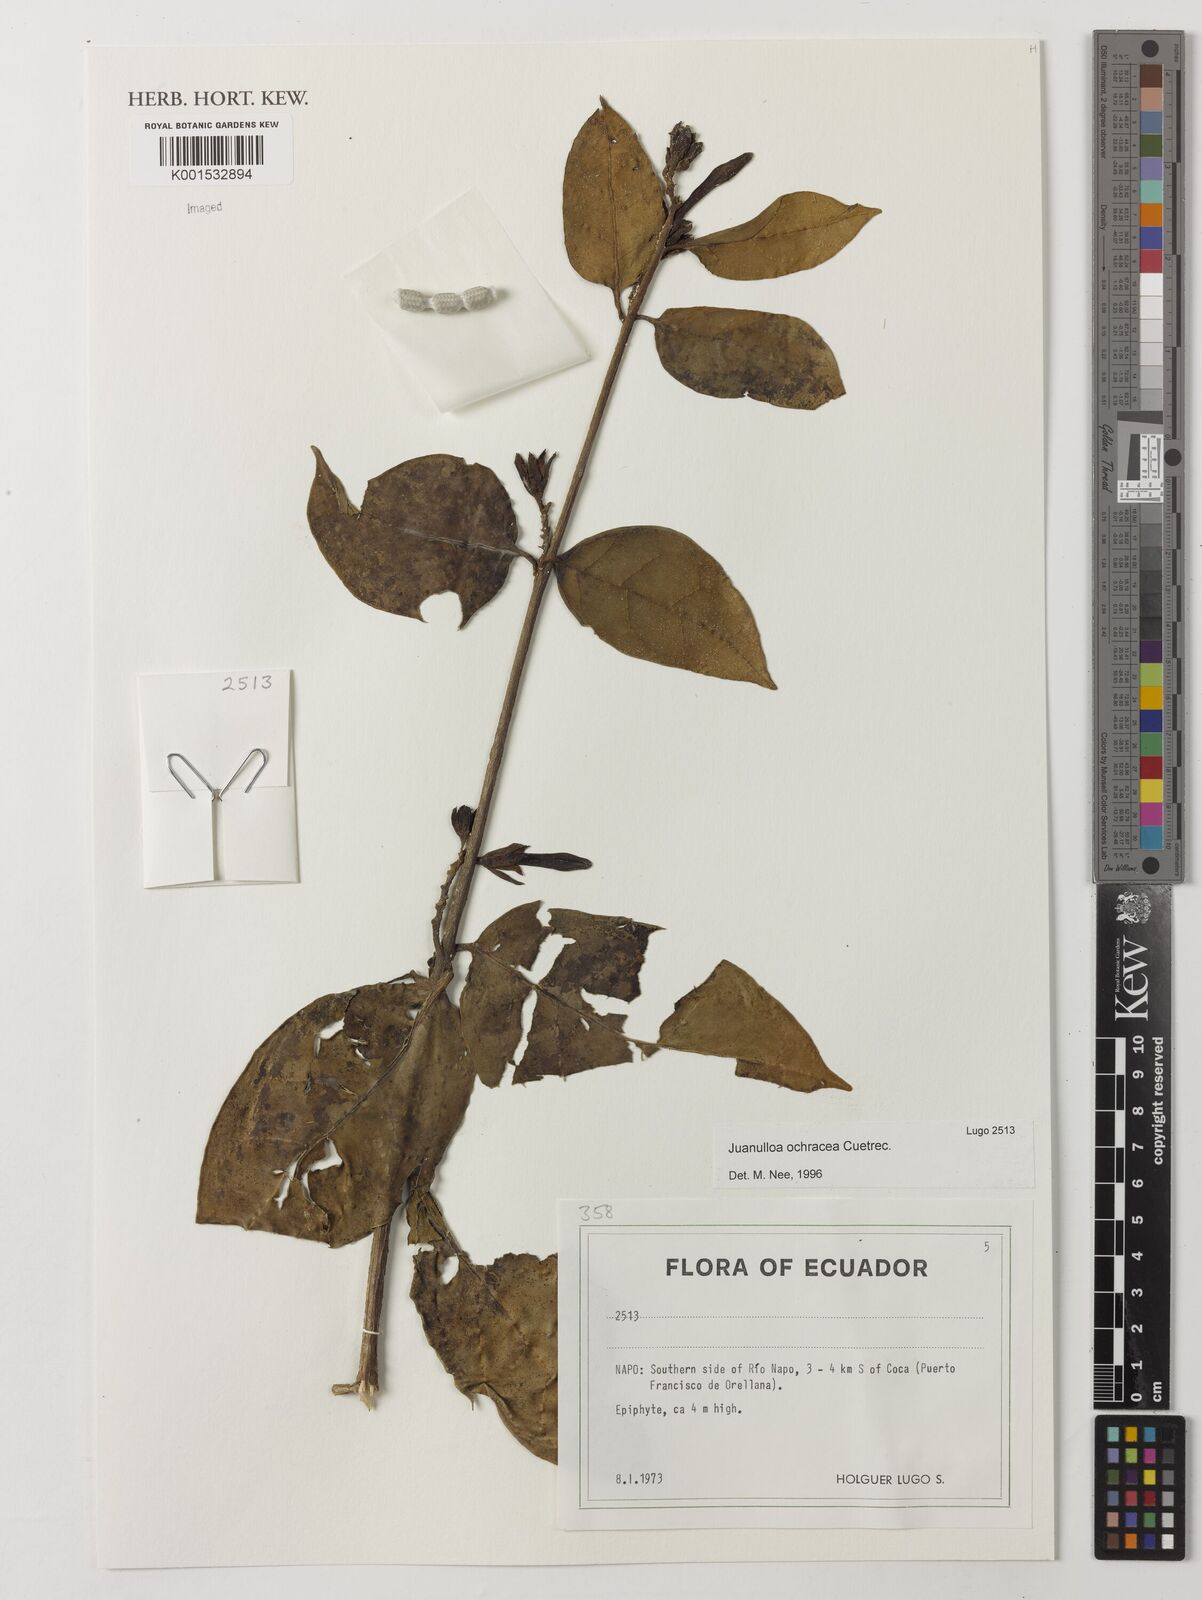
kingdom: Plantae
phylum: Tracheophyta
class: Magnoliopsida
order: Solanales
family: Solanaceae
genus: Hawkesiophyton
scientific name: Hawkesiophyton ochraceum
